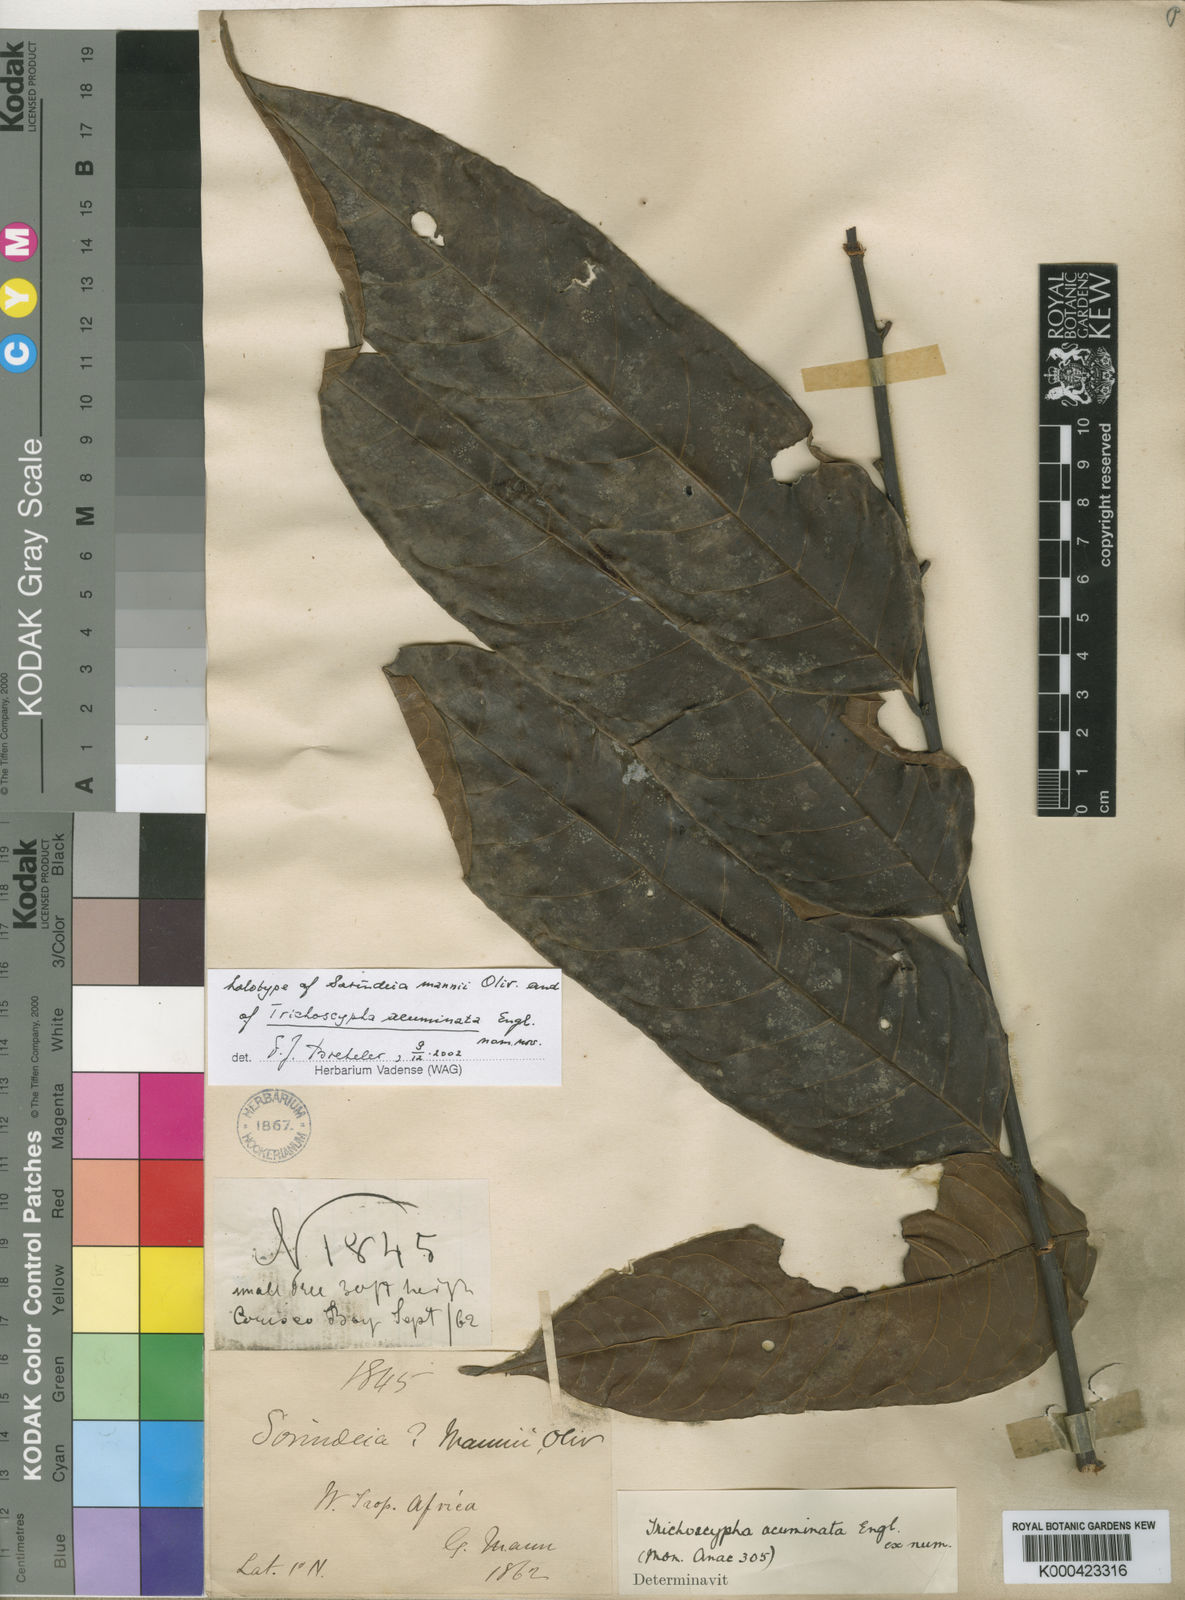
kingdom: Plantae
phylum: Tracheophyta
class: Magnoliopsida
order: Sapindales
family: Anacardiaceae
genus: Trichoscypha
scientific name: Trichoscypha acuminata
